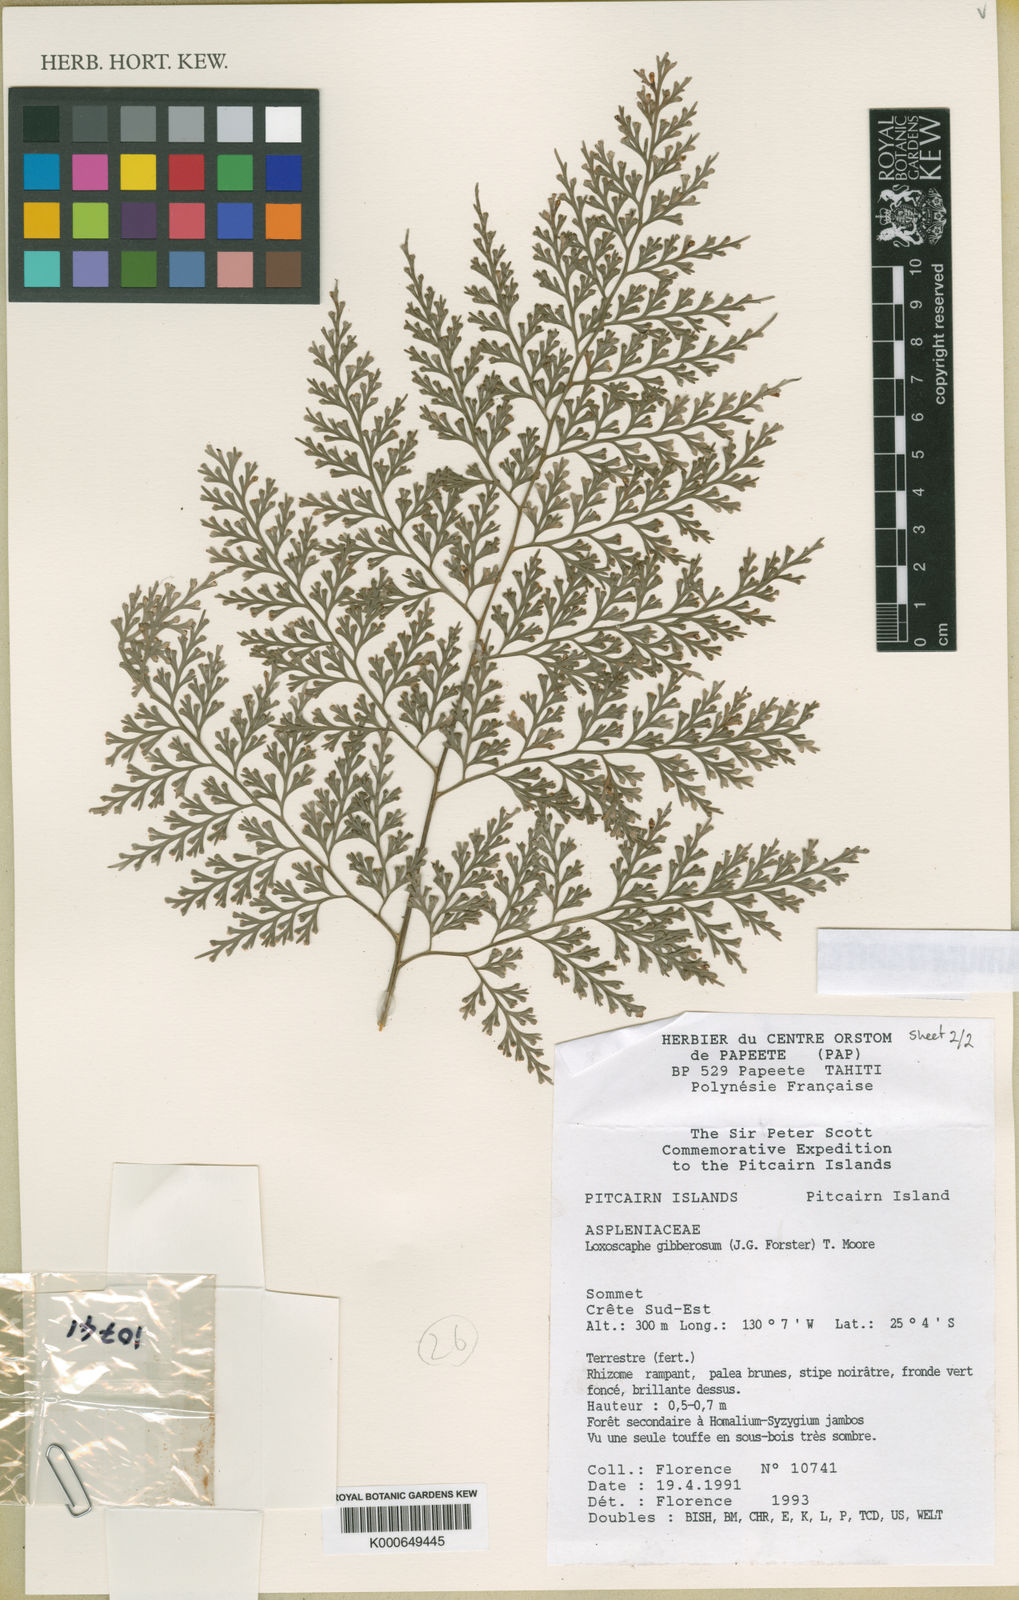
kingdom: Plantae
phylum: Tracheophyta
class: Polypodiopsida
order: Polypodiales
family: Aspleniaceae
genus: Asplenium
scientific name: Asplenium gibberosum
